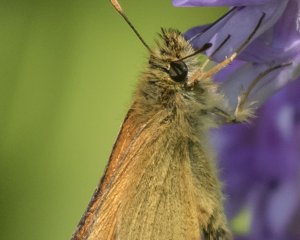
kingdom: Animalia
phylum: Arthropoda
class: Insecta
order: Lepidoptera
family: Hesperiidae
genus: Thymelicus
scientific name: Thymelicus lineola
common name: European Skipper
